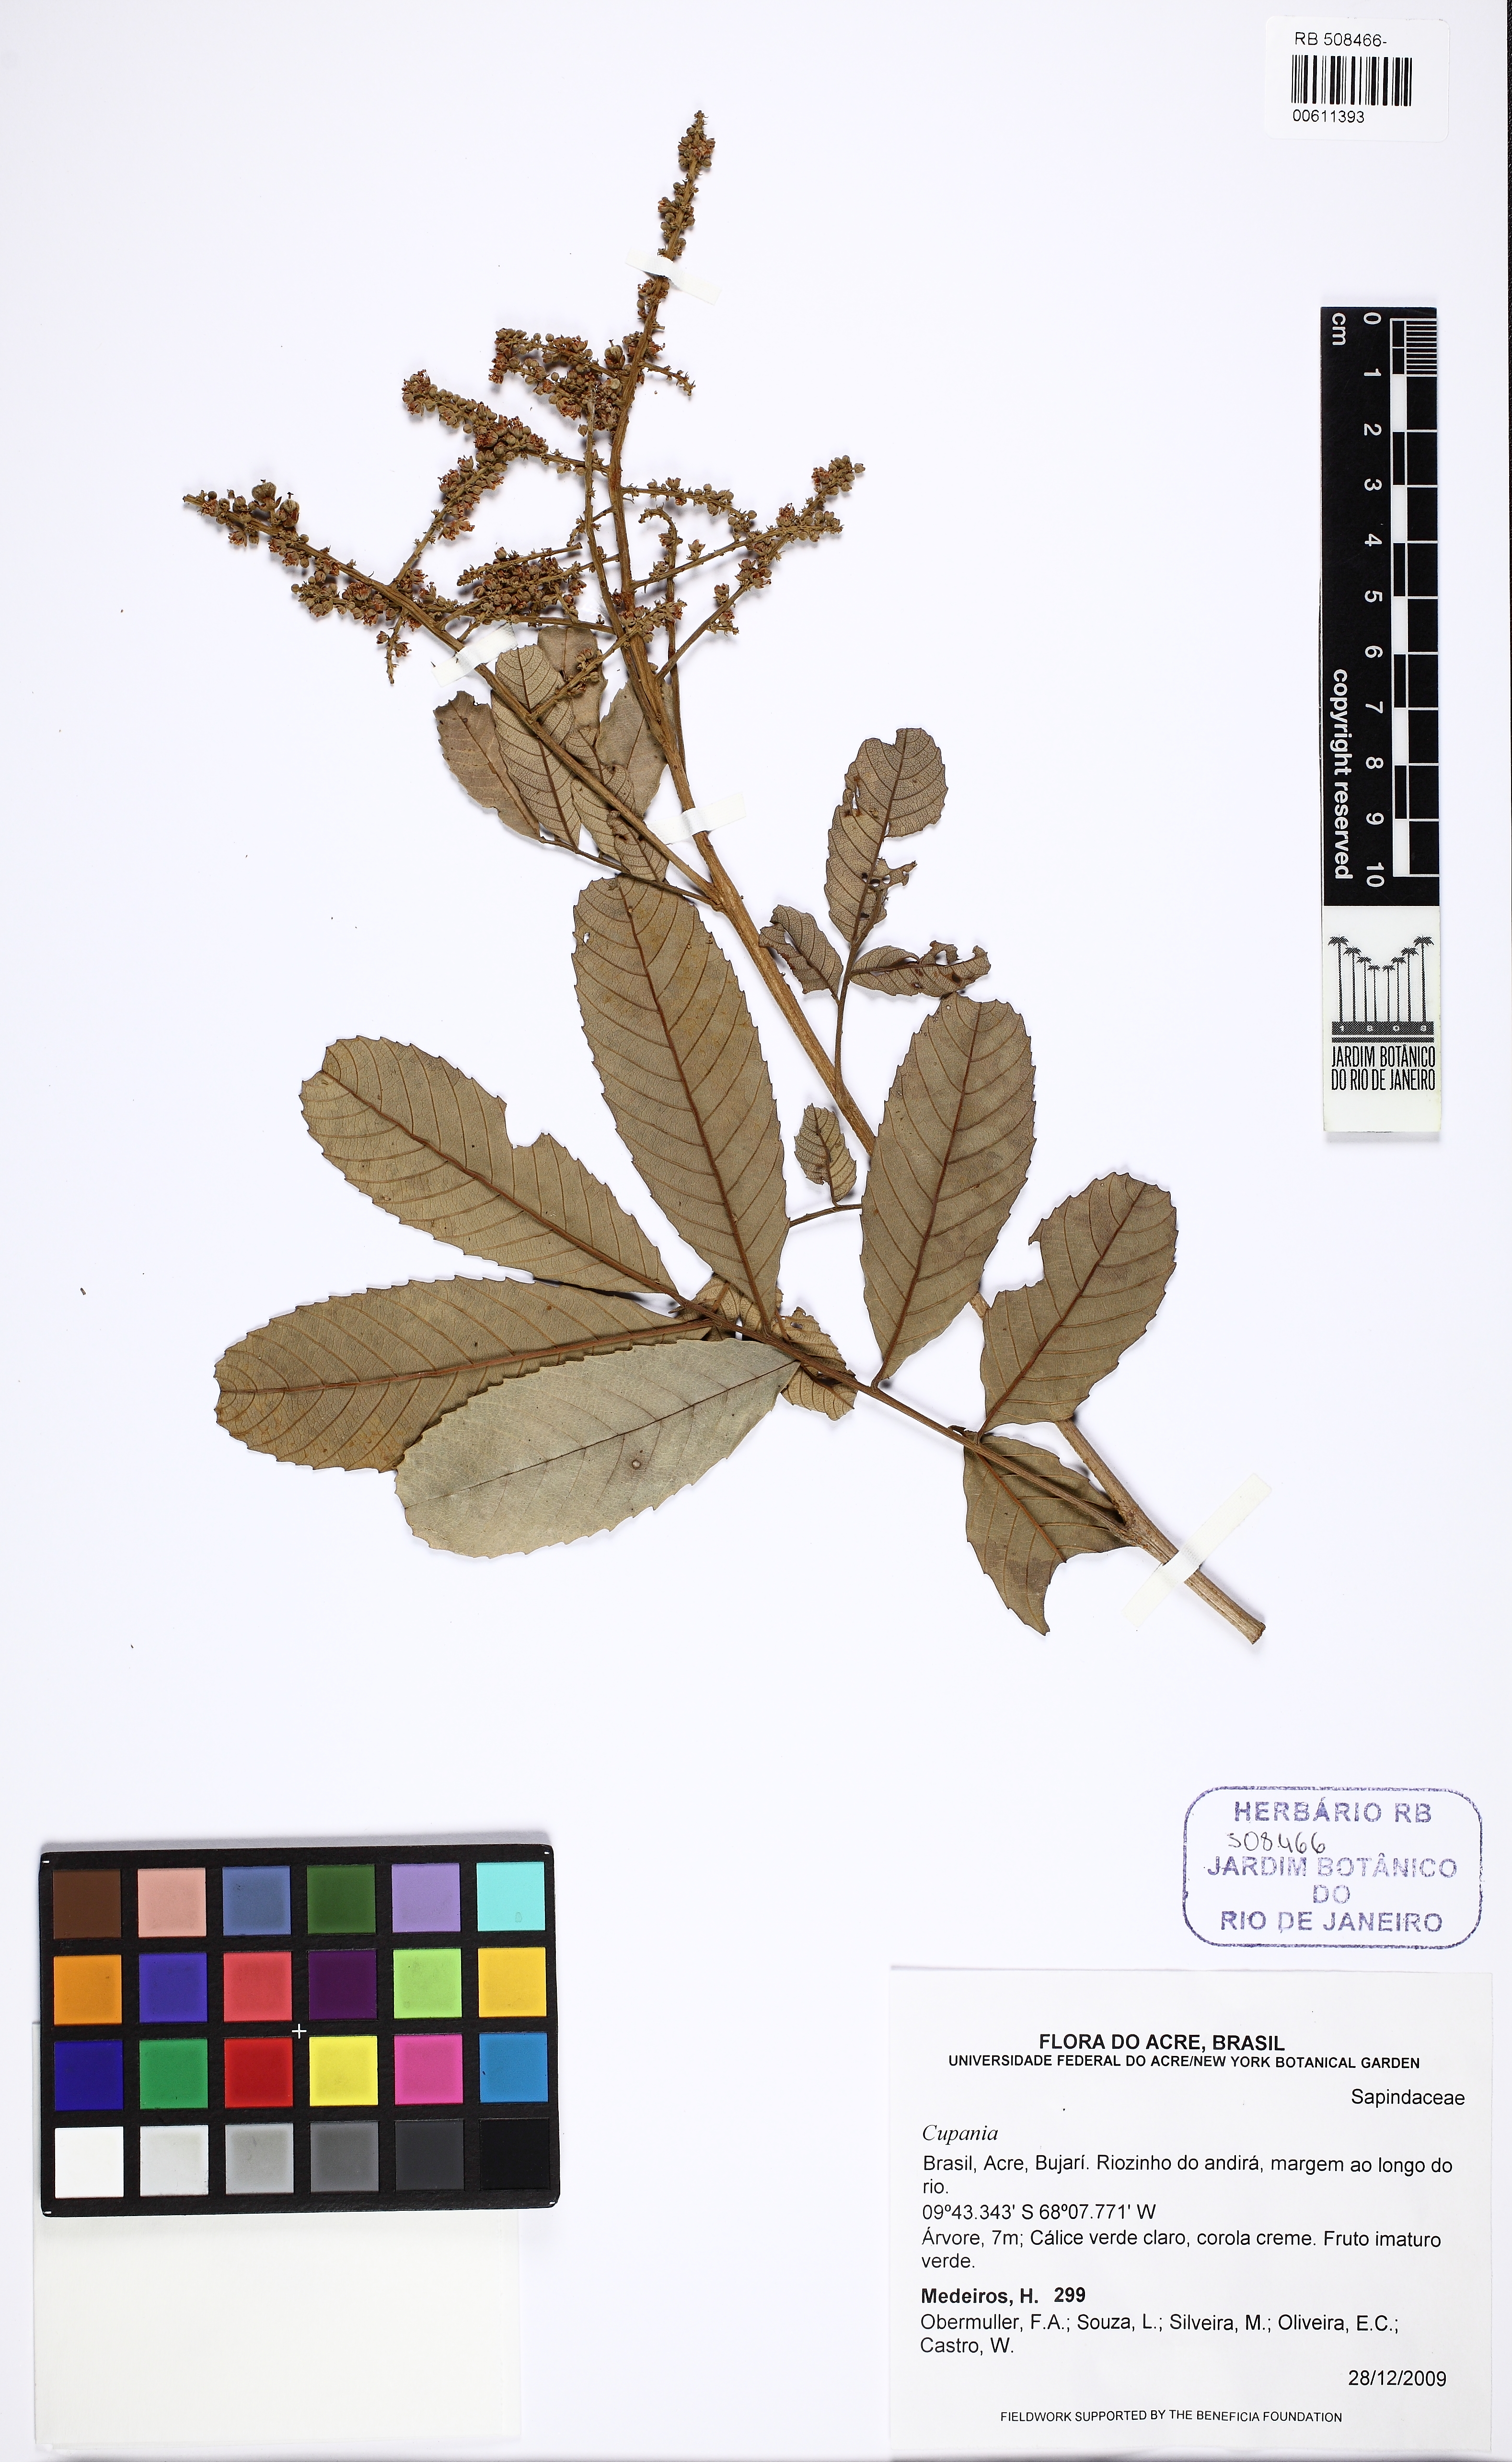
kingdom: Plantae
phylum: Tracheophyta
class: Magnoliopsida
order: Sapindales
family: Sapindaceae
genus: Cupania
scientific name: Cupania
